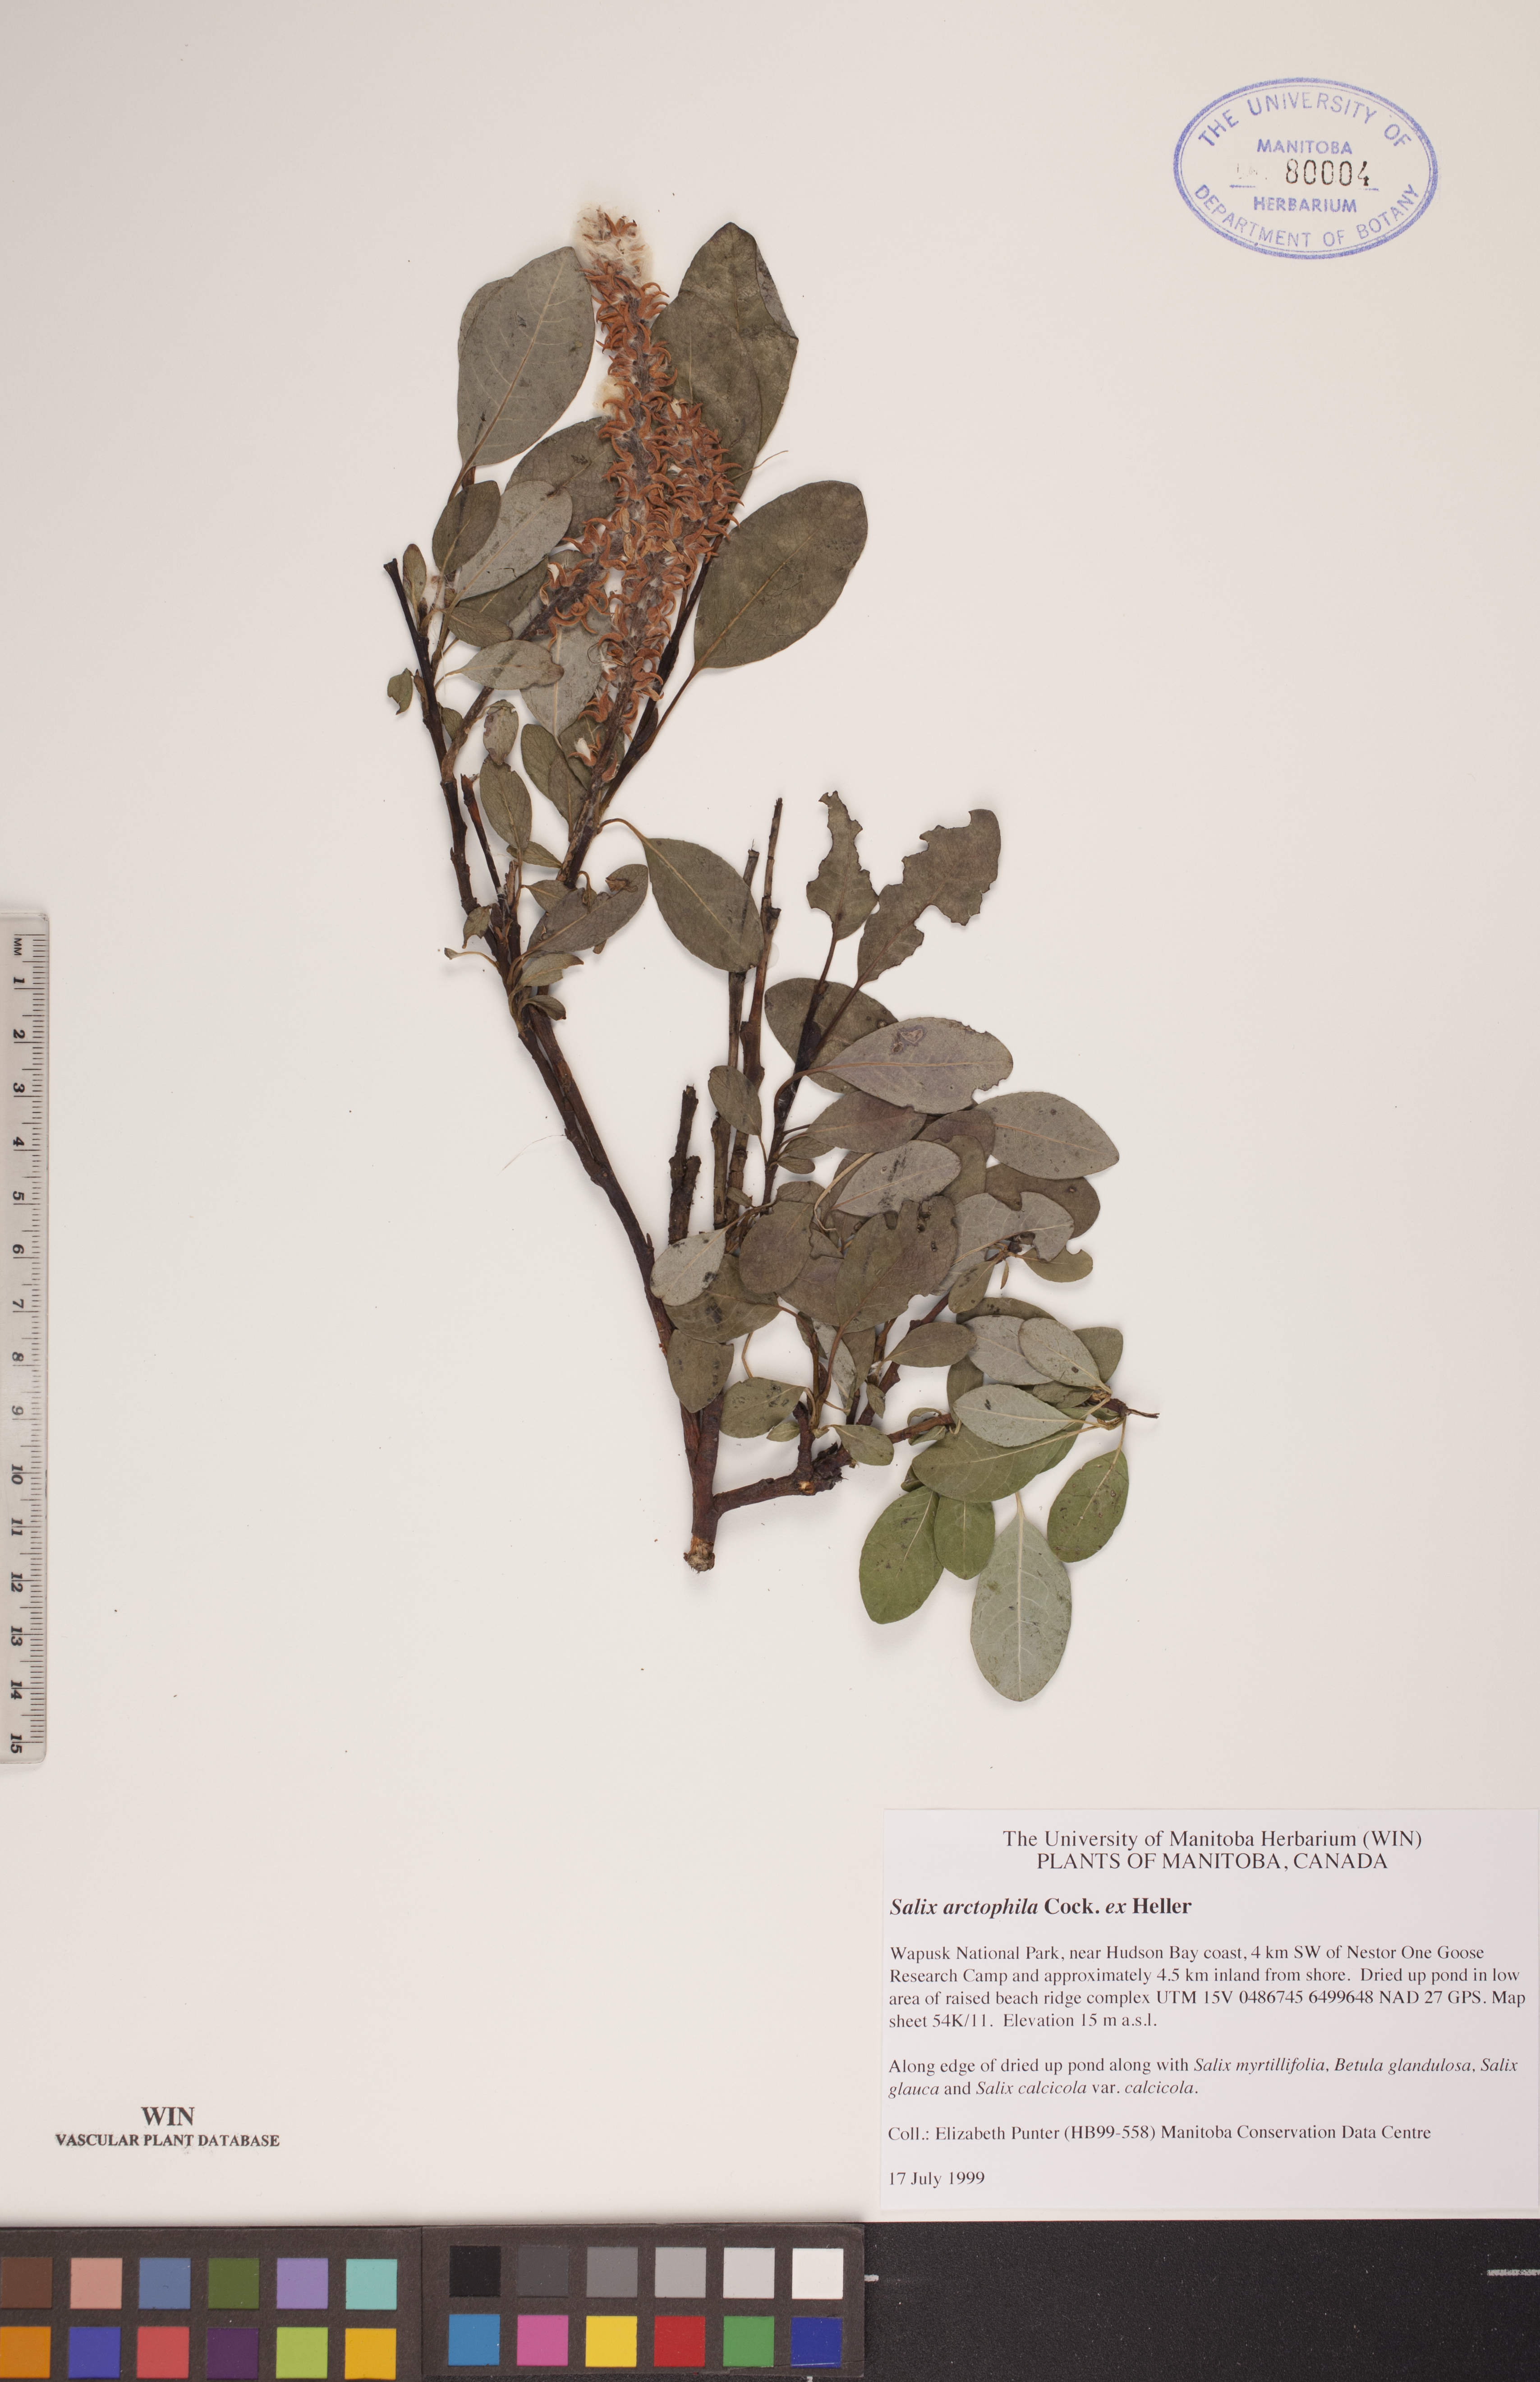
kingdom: Plantae
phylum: Tracheophyta
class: Magnoliopsida
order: Malpighiales
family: Salicaceae
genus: Salix
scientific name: Salix arctophila
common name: Greenland willow
